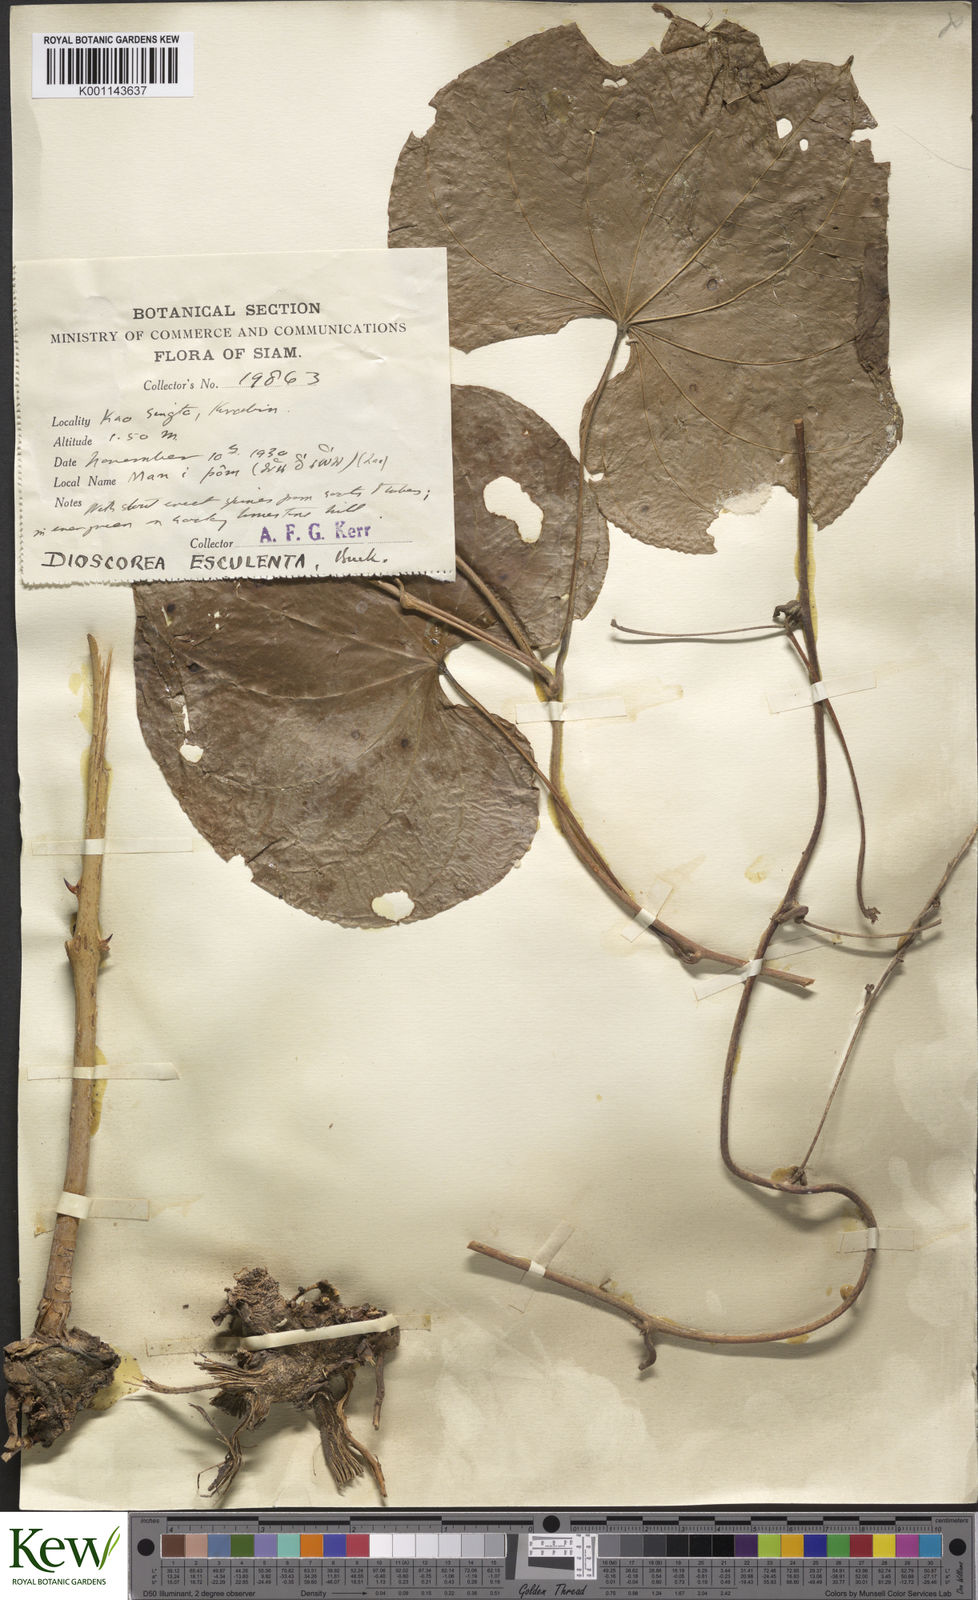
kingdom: Plantae
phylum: Tracheophyta
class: Liliopsida
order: Dioscoreales
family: Dioscoreaceae
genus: Dioscorea
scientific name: Dioscorea esculenta
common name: Chinese yam
